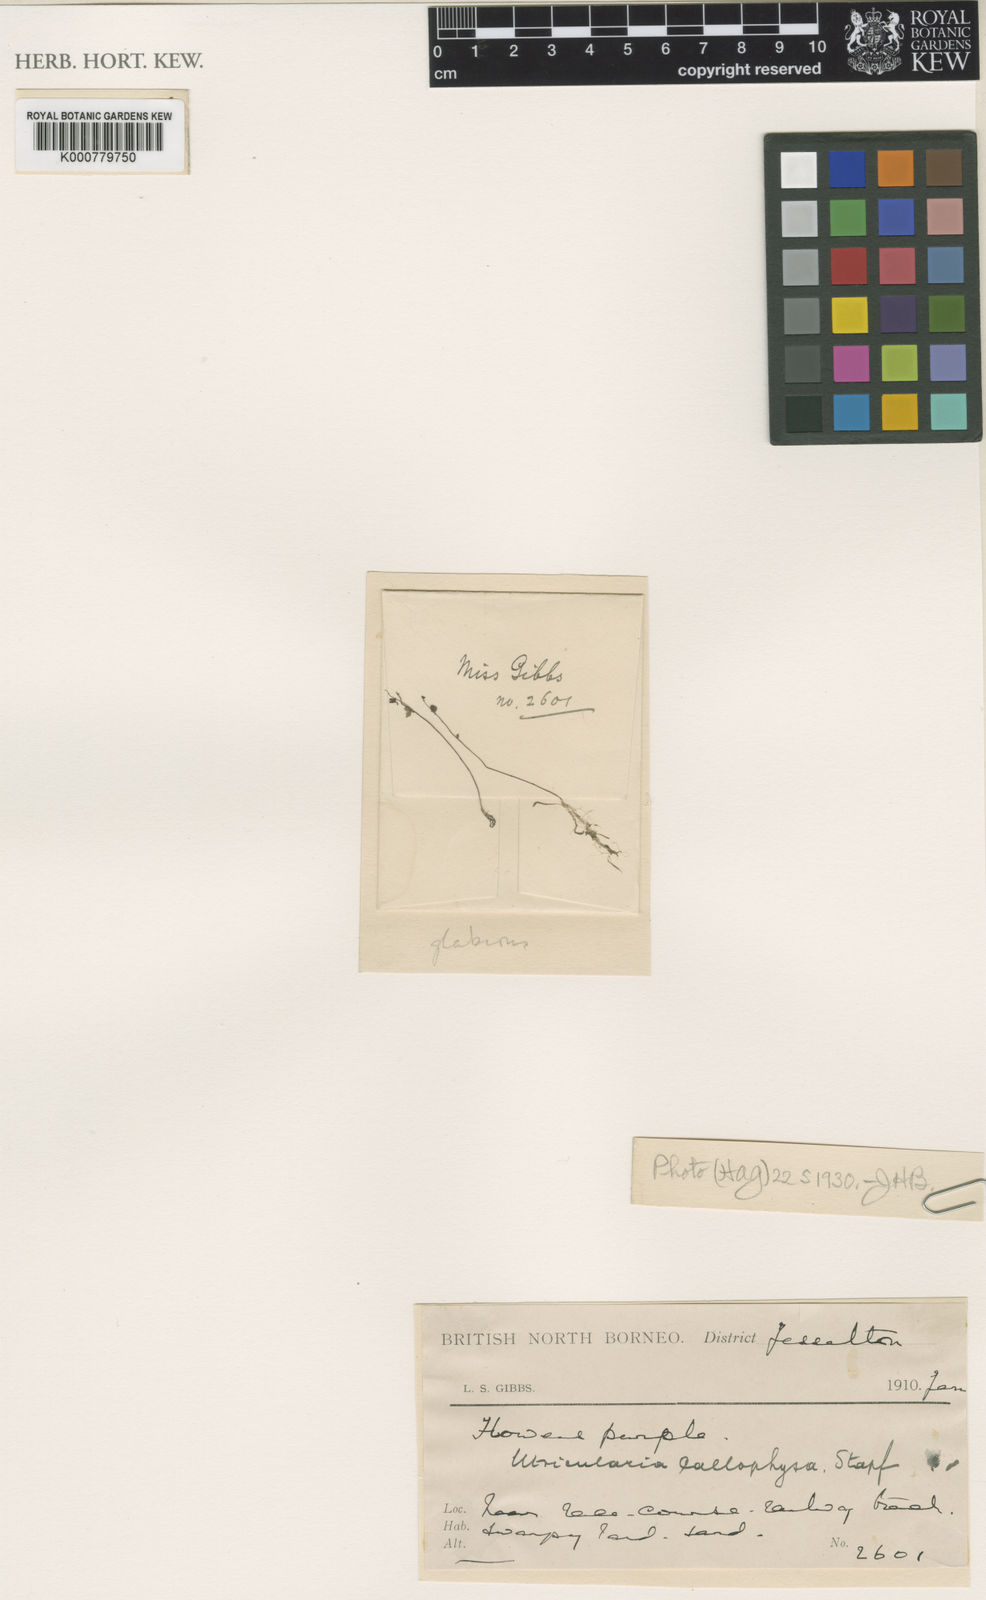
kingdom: Plantae
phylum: Tracheophyta
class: Magnoliopsida
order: Lamiales
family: Lentibulariaceae
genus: Utricularia
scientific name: Utricularia minutissima
